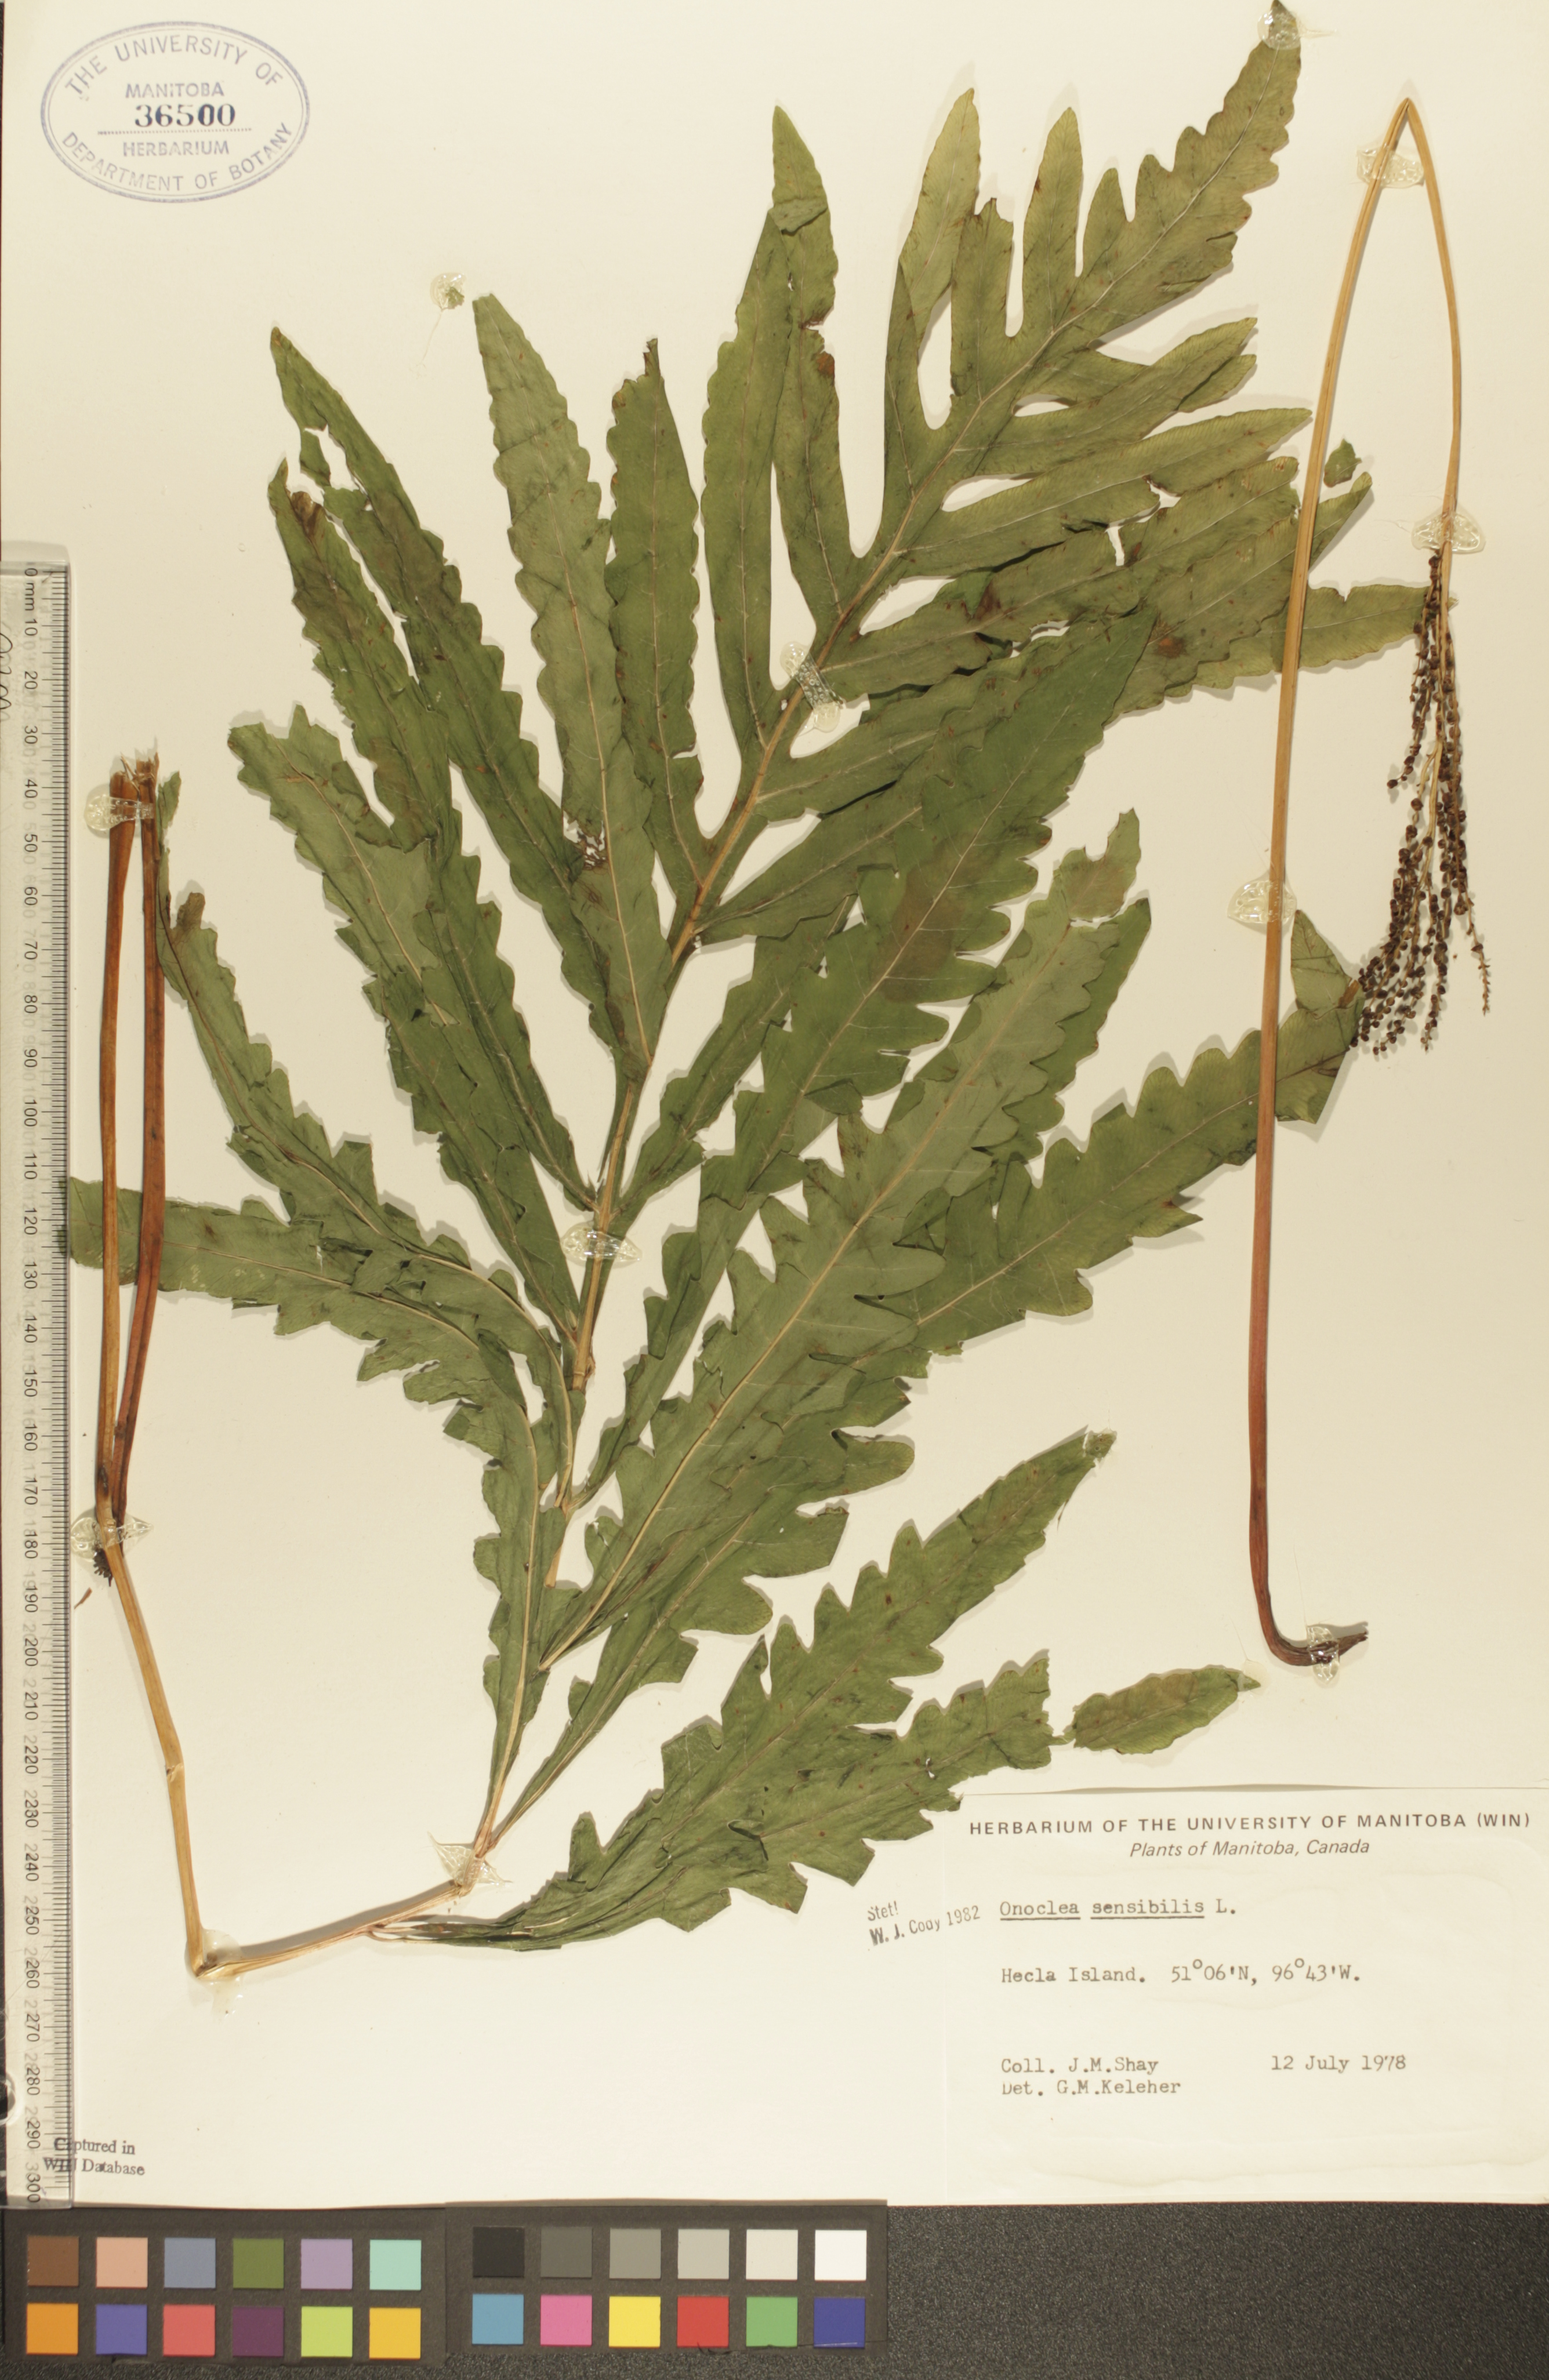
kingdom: Plantae
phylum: Tracheophyta
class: Polypodiopsida
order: Polypodiales
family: Onocleaceae
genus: Onoclea
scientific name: Onoclea sensibilis
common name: Sensitive fern
